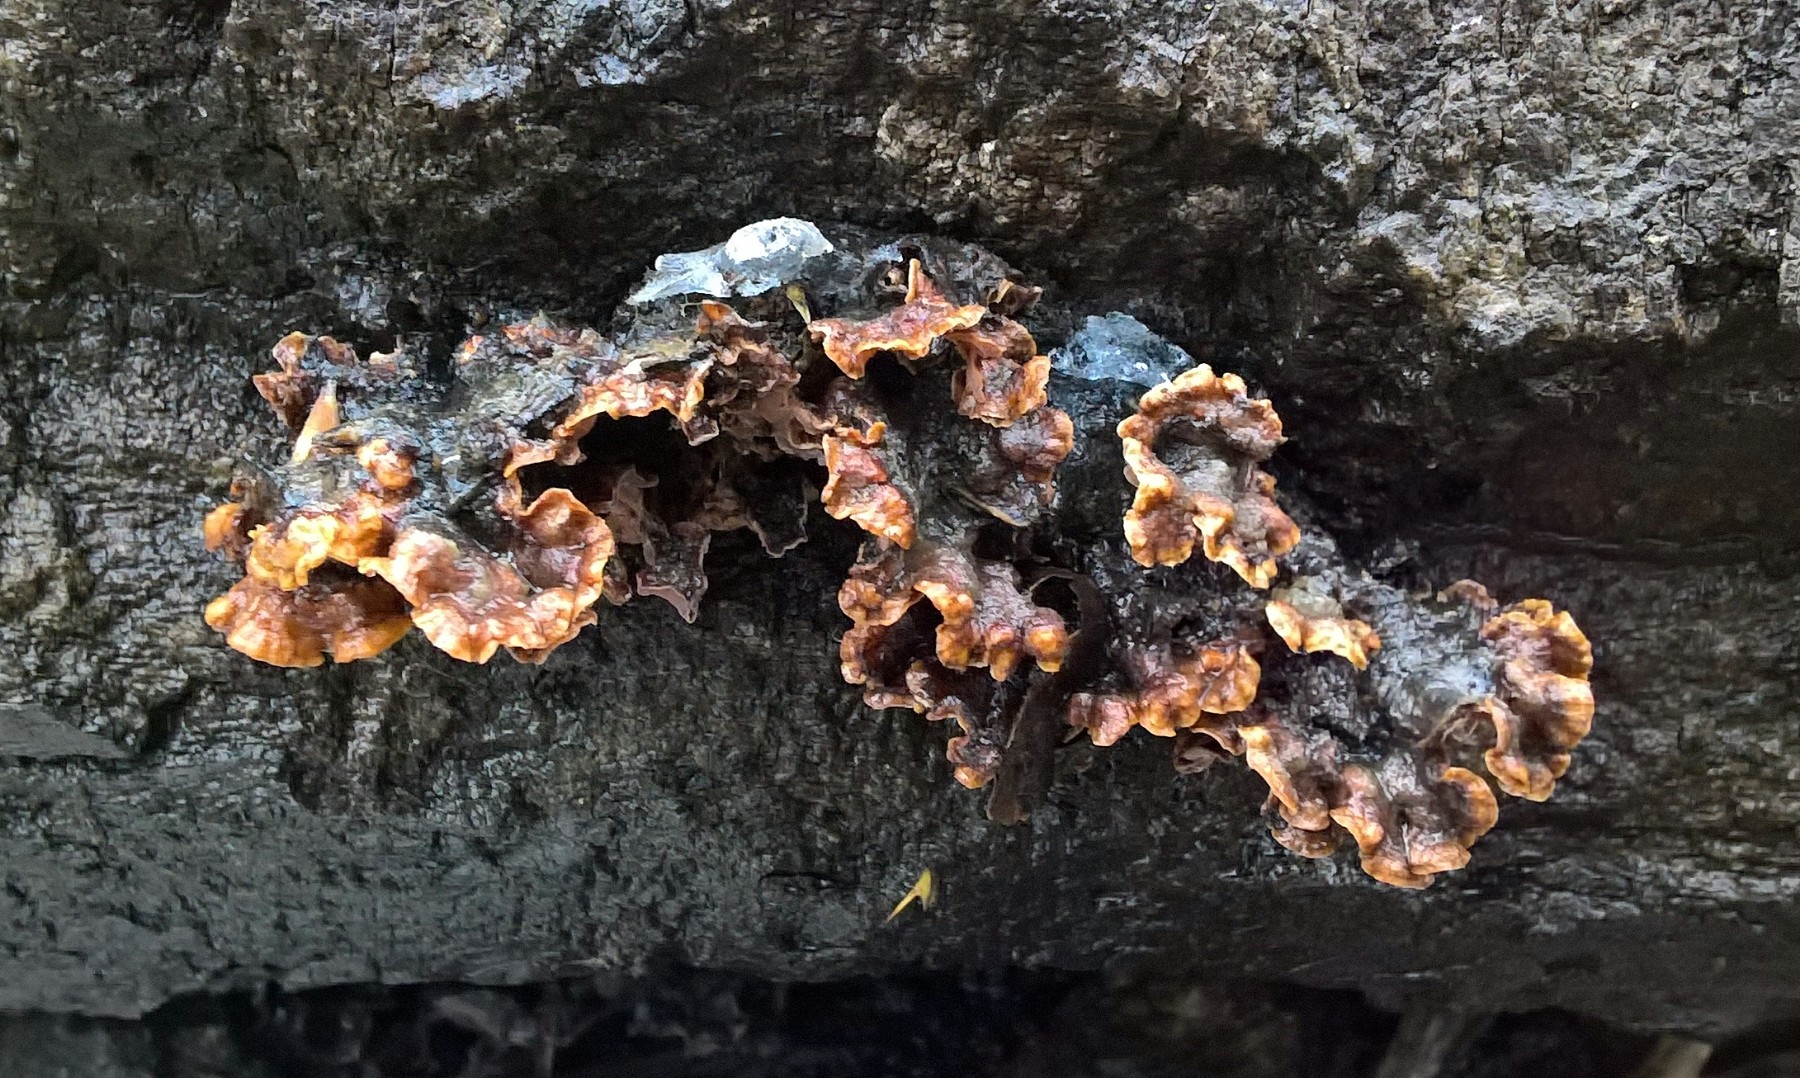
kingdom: Fungi
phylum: Basidiomycota
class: Agaricomycetes
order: Russulales
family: Stereaceae
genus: Stereum
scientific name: Stereum hirsutum
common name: håret lædersvamp
